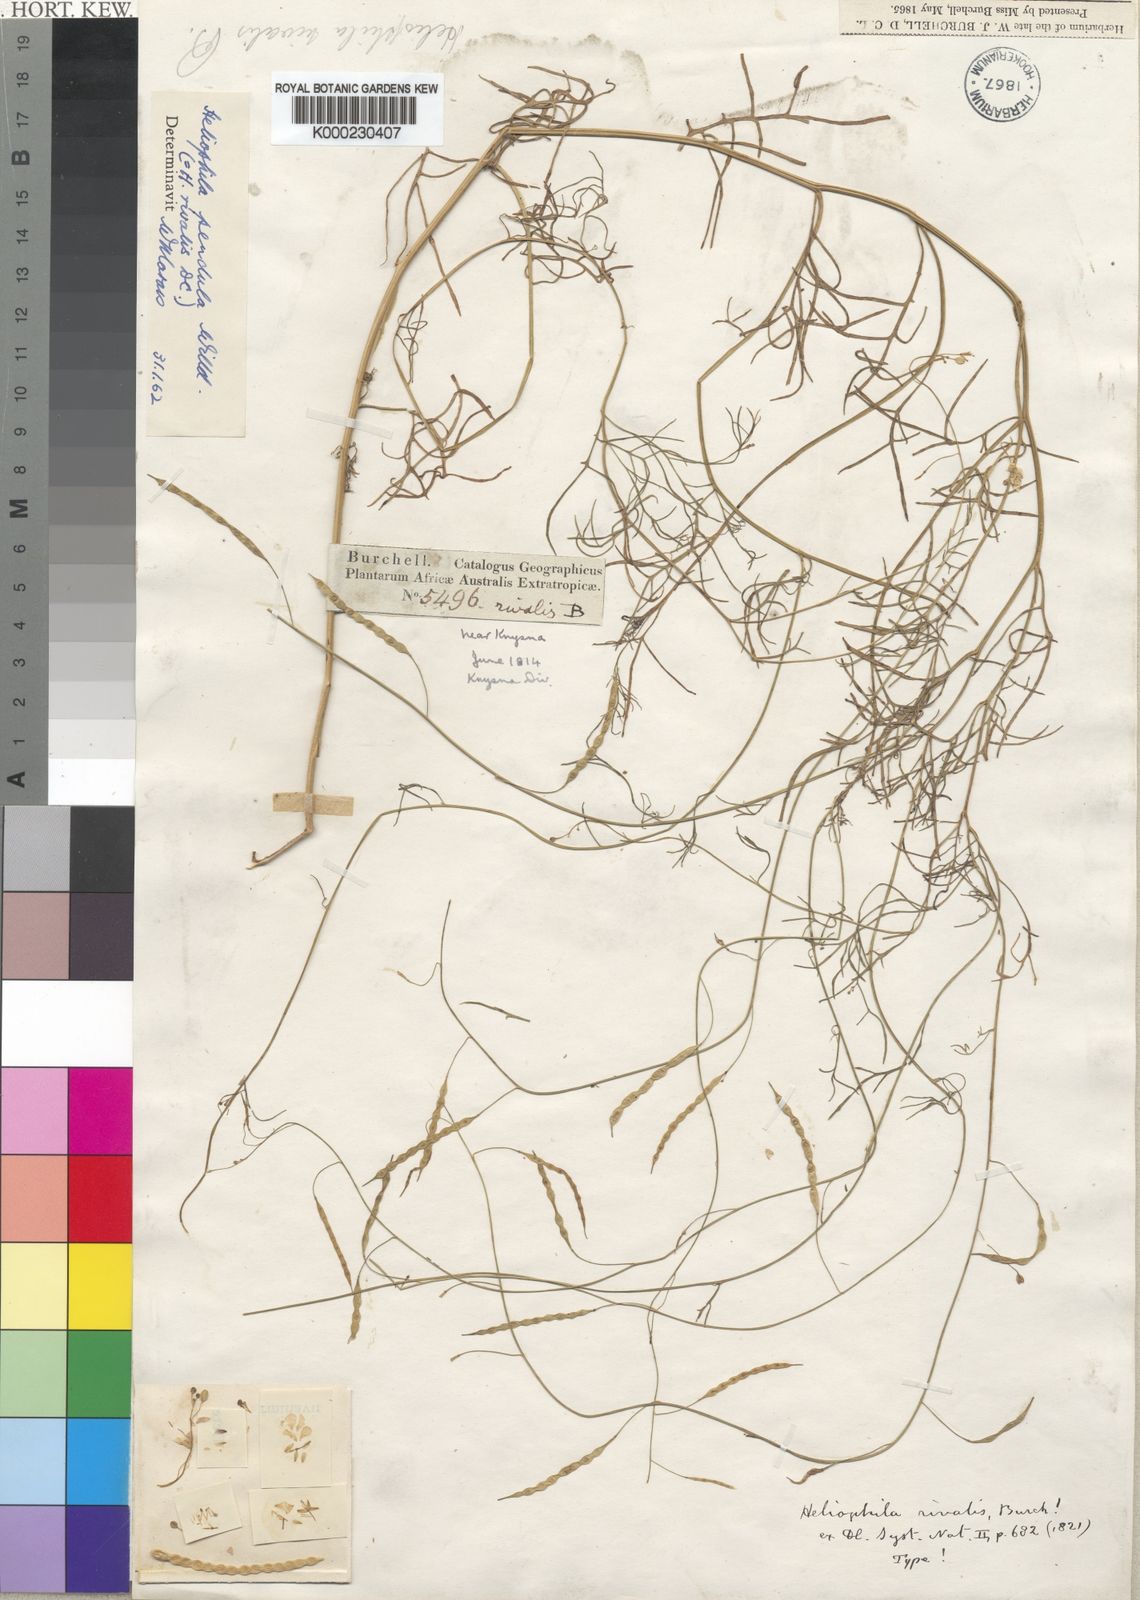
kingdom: Plantae
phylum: Tracheophyta
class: Magnoliopsida
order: Brassicales
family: Brassicaceae
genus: Heliophila
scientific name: Heliophila pendula
